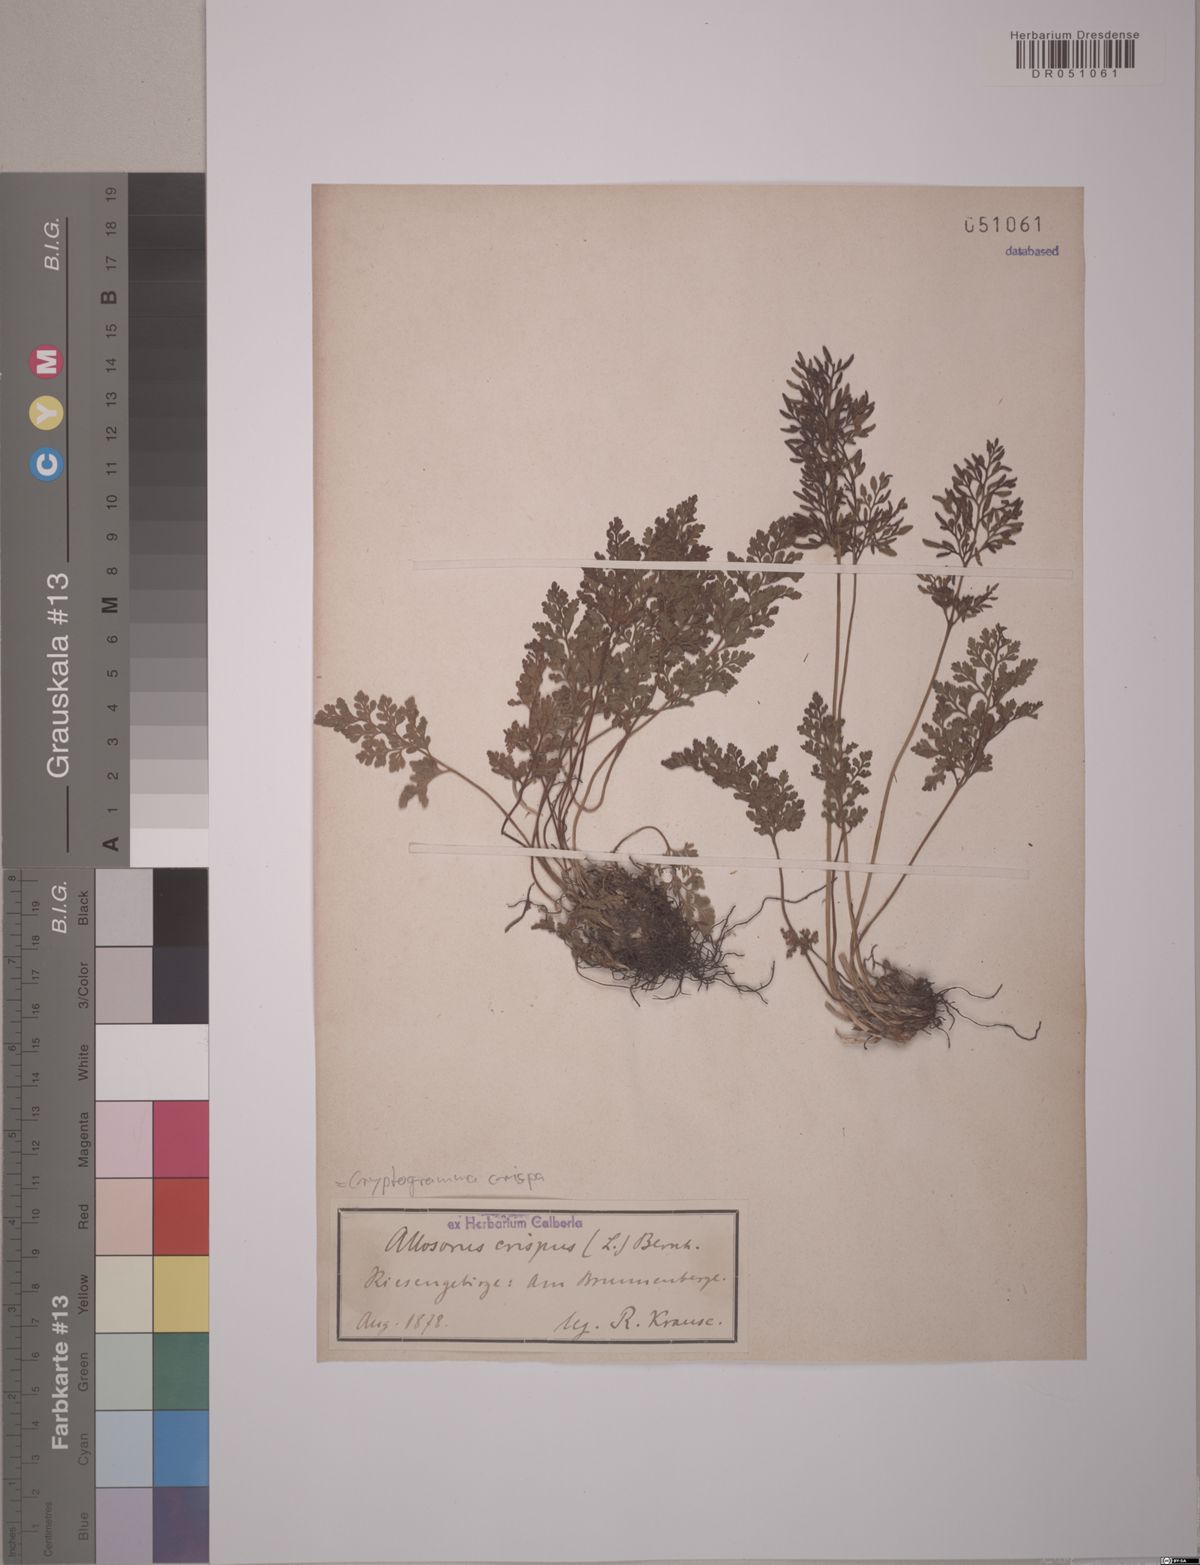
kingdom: Plantae
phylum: Tracheophyta
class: Polypodiopsida
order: Polypodiales
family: Pteridaceae
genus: Cryptogramma
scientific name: Cryptogramma crispa
